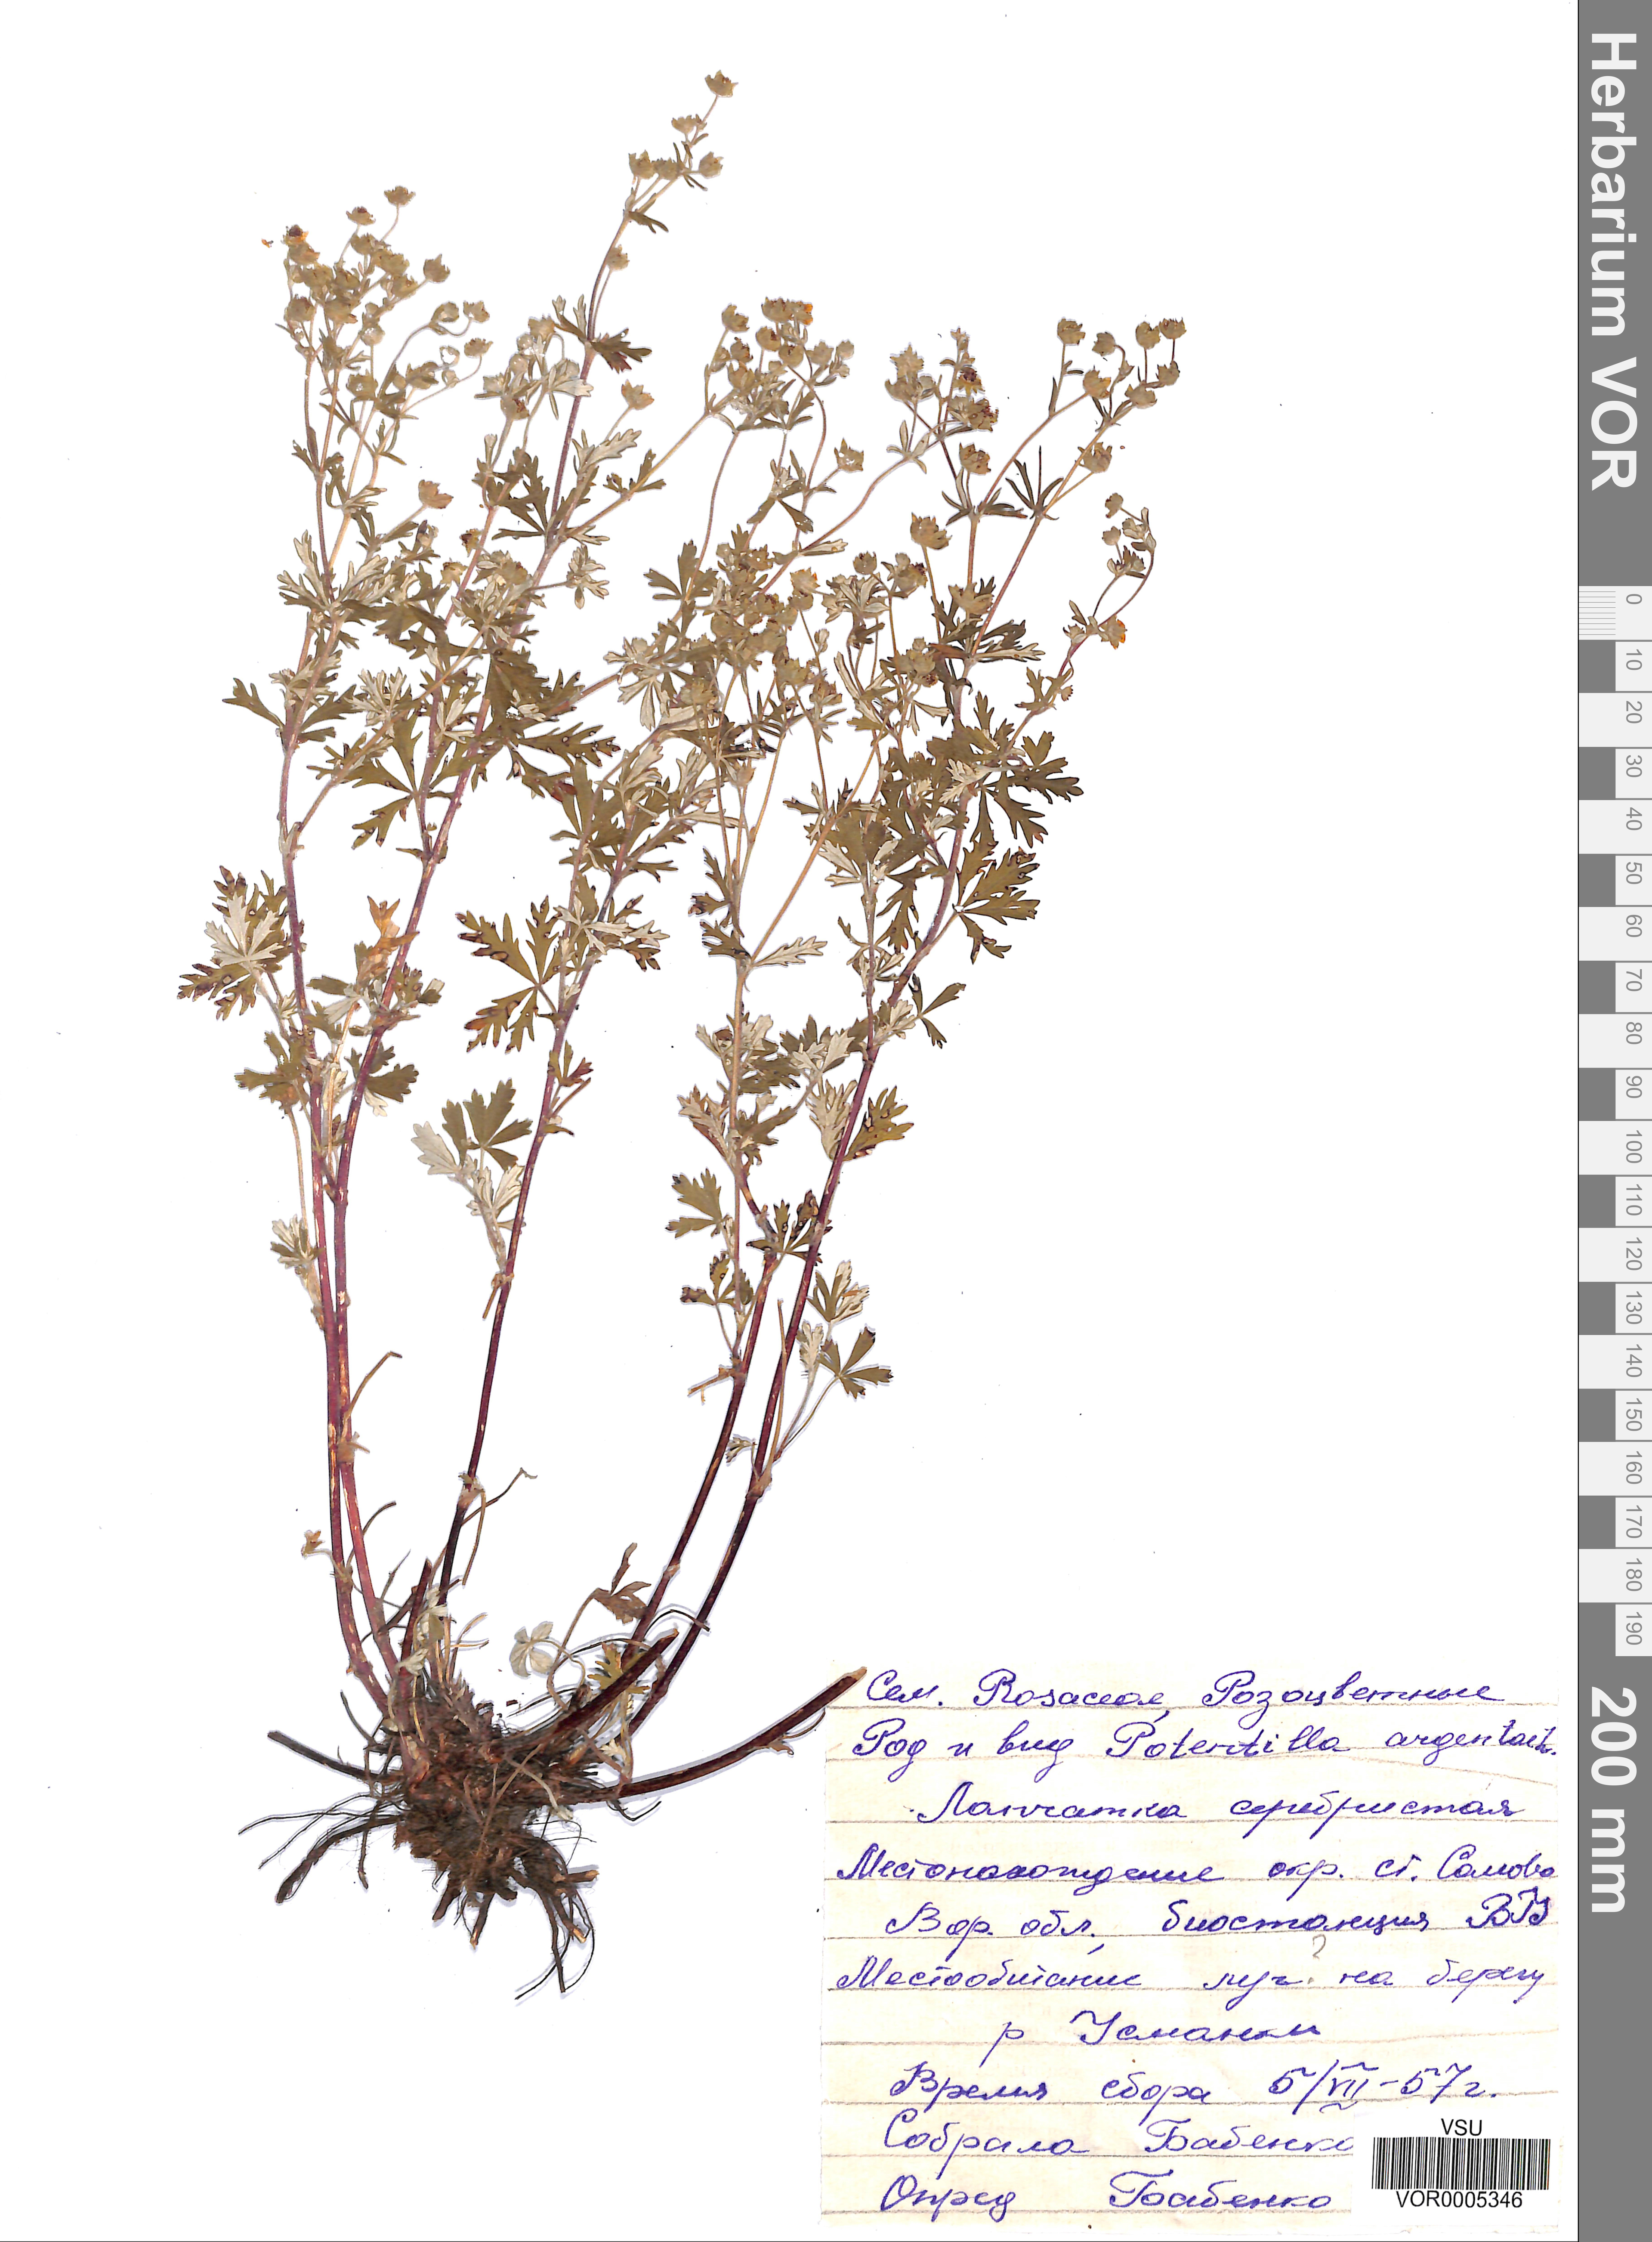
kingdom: Plantae
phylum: Tracheophyta
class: Magnoliopsida
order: Rosales
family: Rosaceae
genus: Potentilla
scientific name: Potentilla argentea
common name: Hoary cinquefoil
